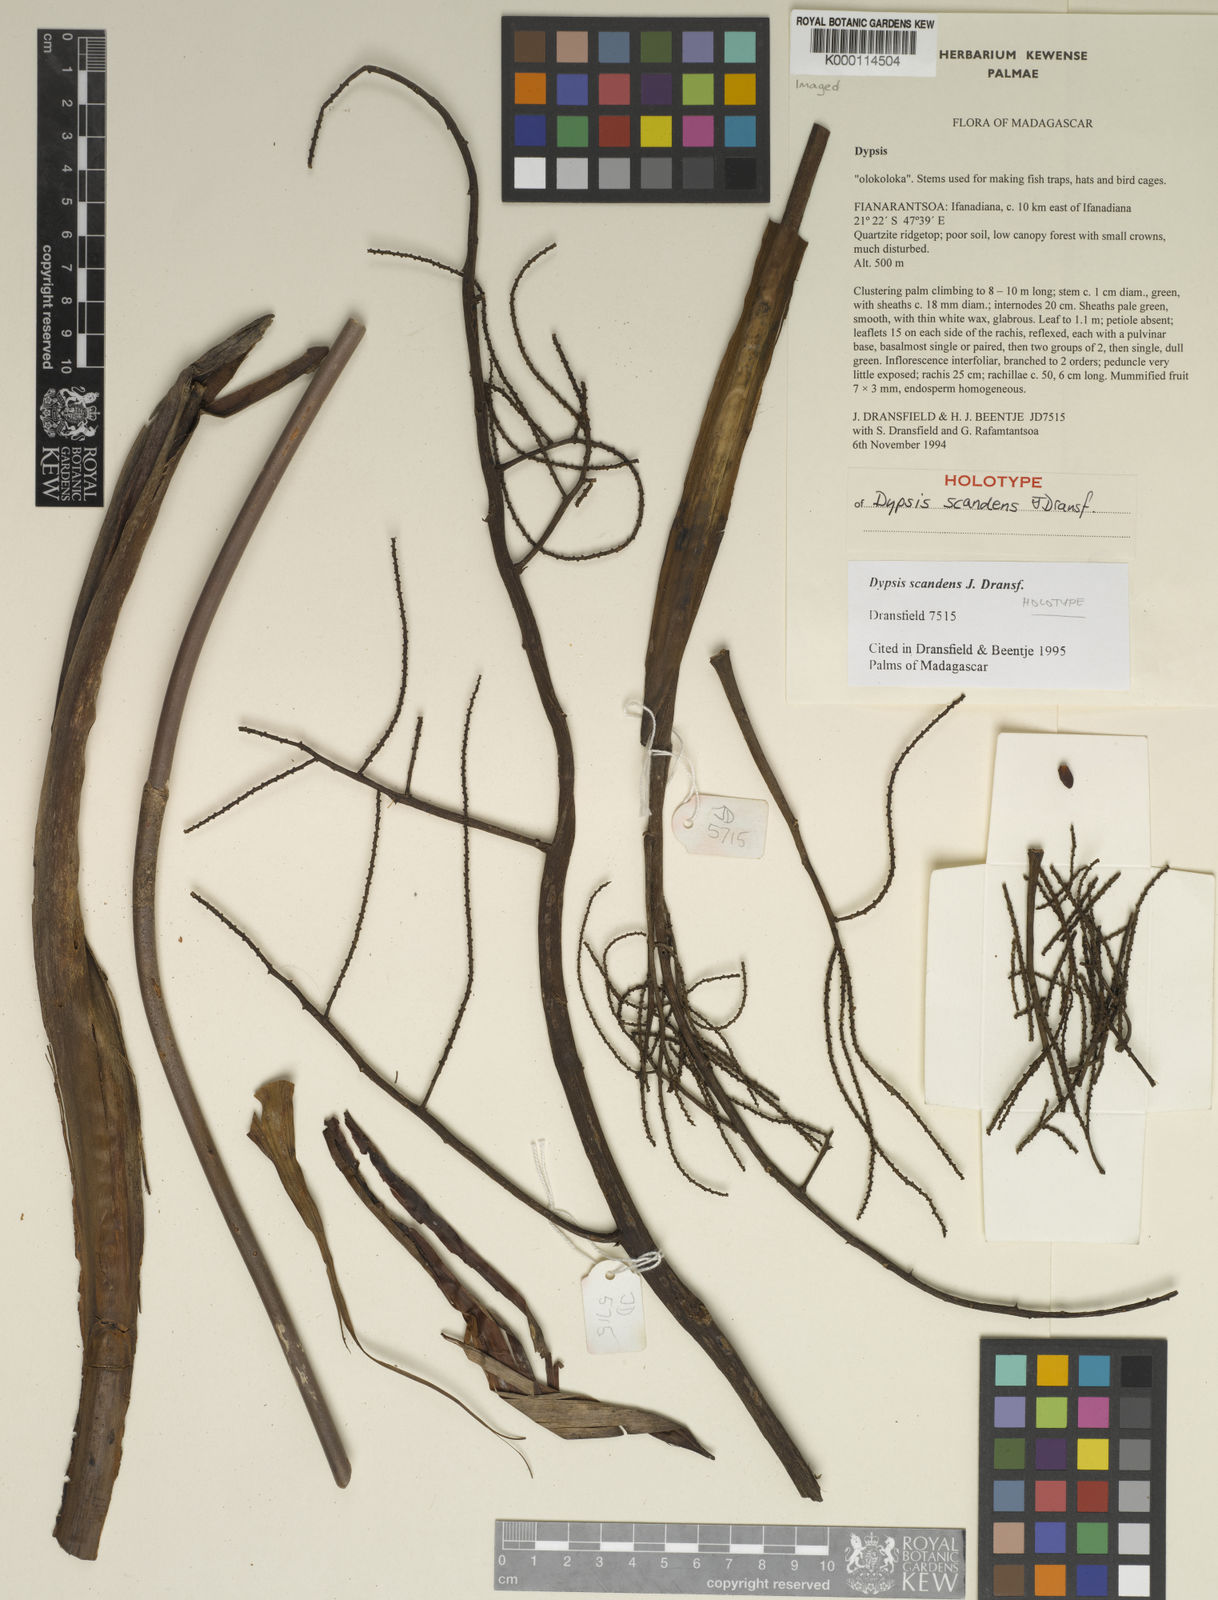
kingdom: Plantae
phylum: Tracheophyta
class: Liliopsida
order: Arecales
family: Arecaceae
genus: Dypsis
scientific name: Dypsis scandens
